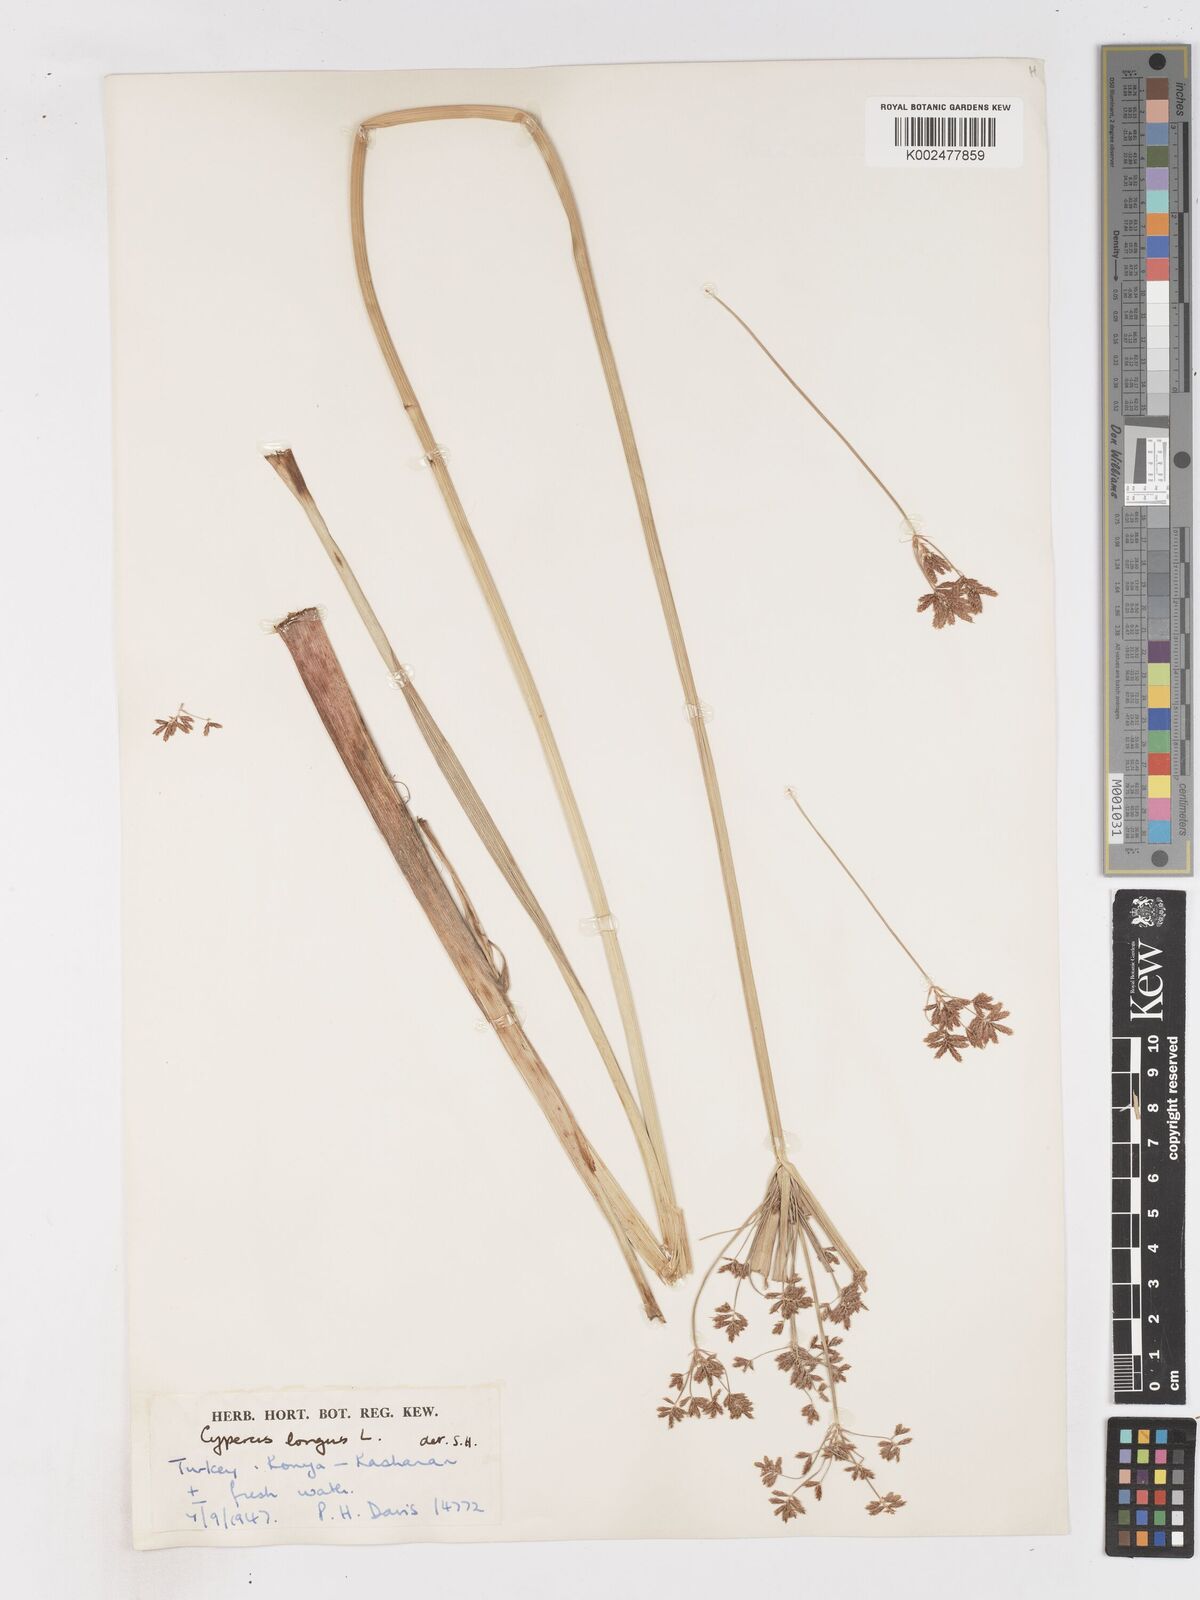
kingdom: Plantae
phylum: Tracheophyta
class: Liliopsida
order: Poales
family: Cyperaceae
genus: Cyperus
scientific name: Cyperus patulus
